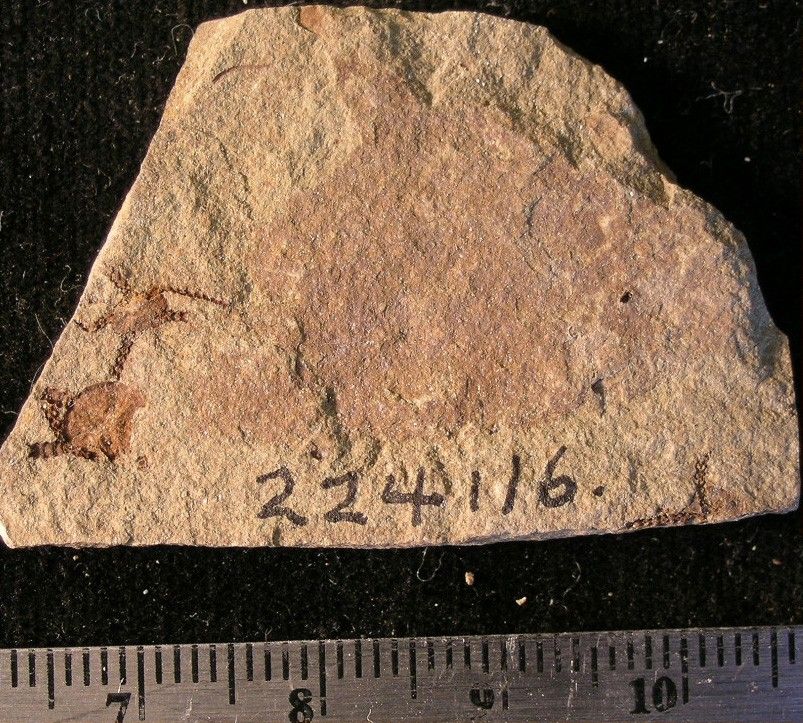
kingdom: Animalia
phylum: Echinodermata
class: Ophiuroidea
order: Amphilepidida
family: Ophiolepididae
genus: Stephanoura
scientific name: Stephanoura belgica
